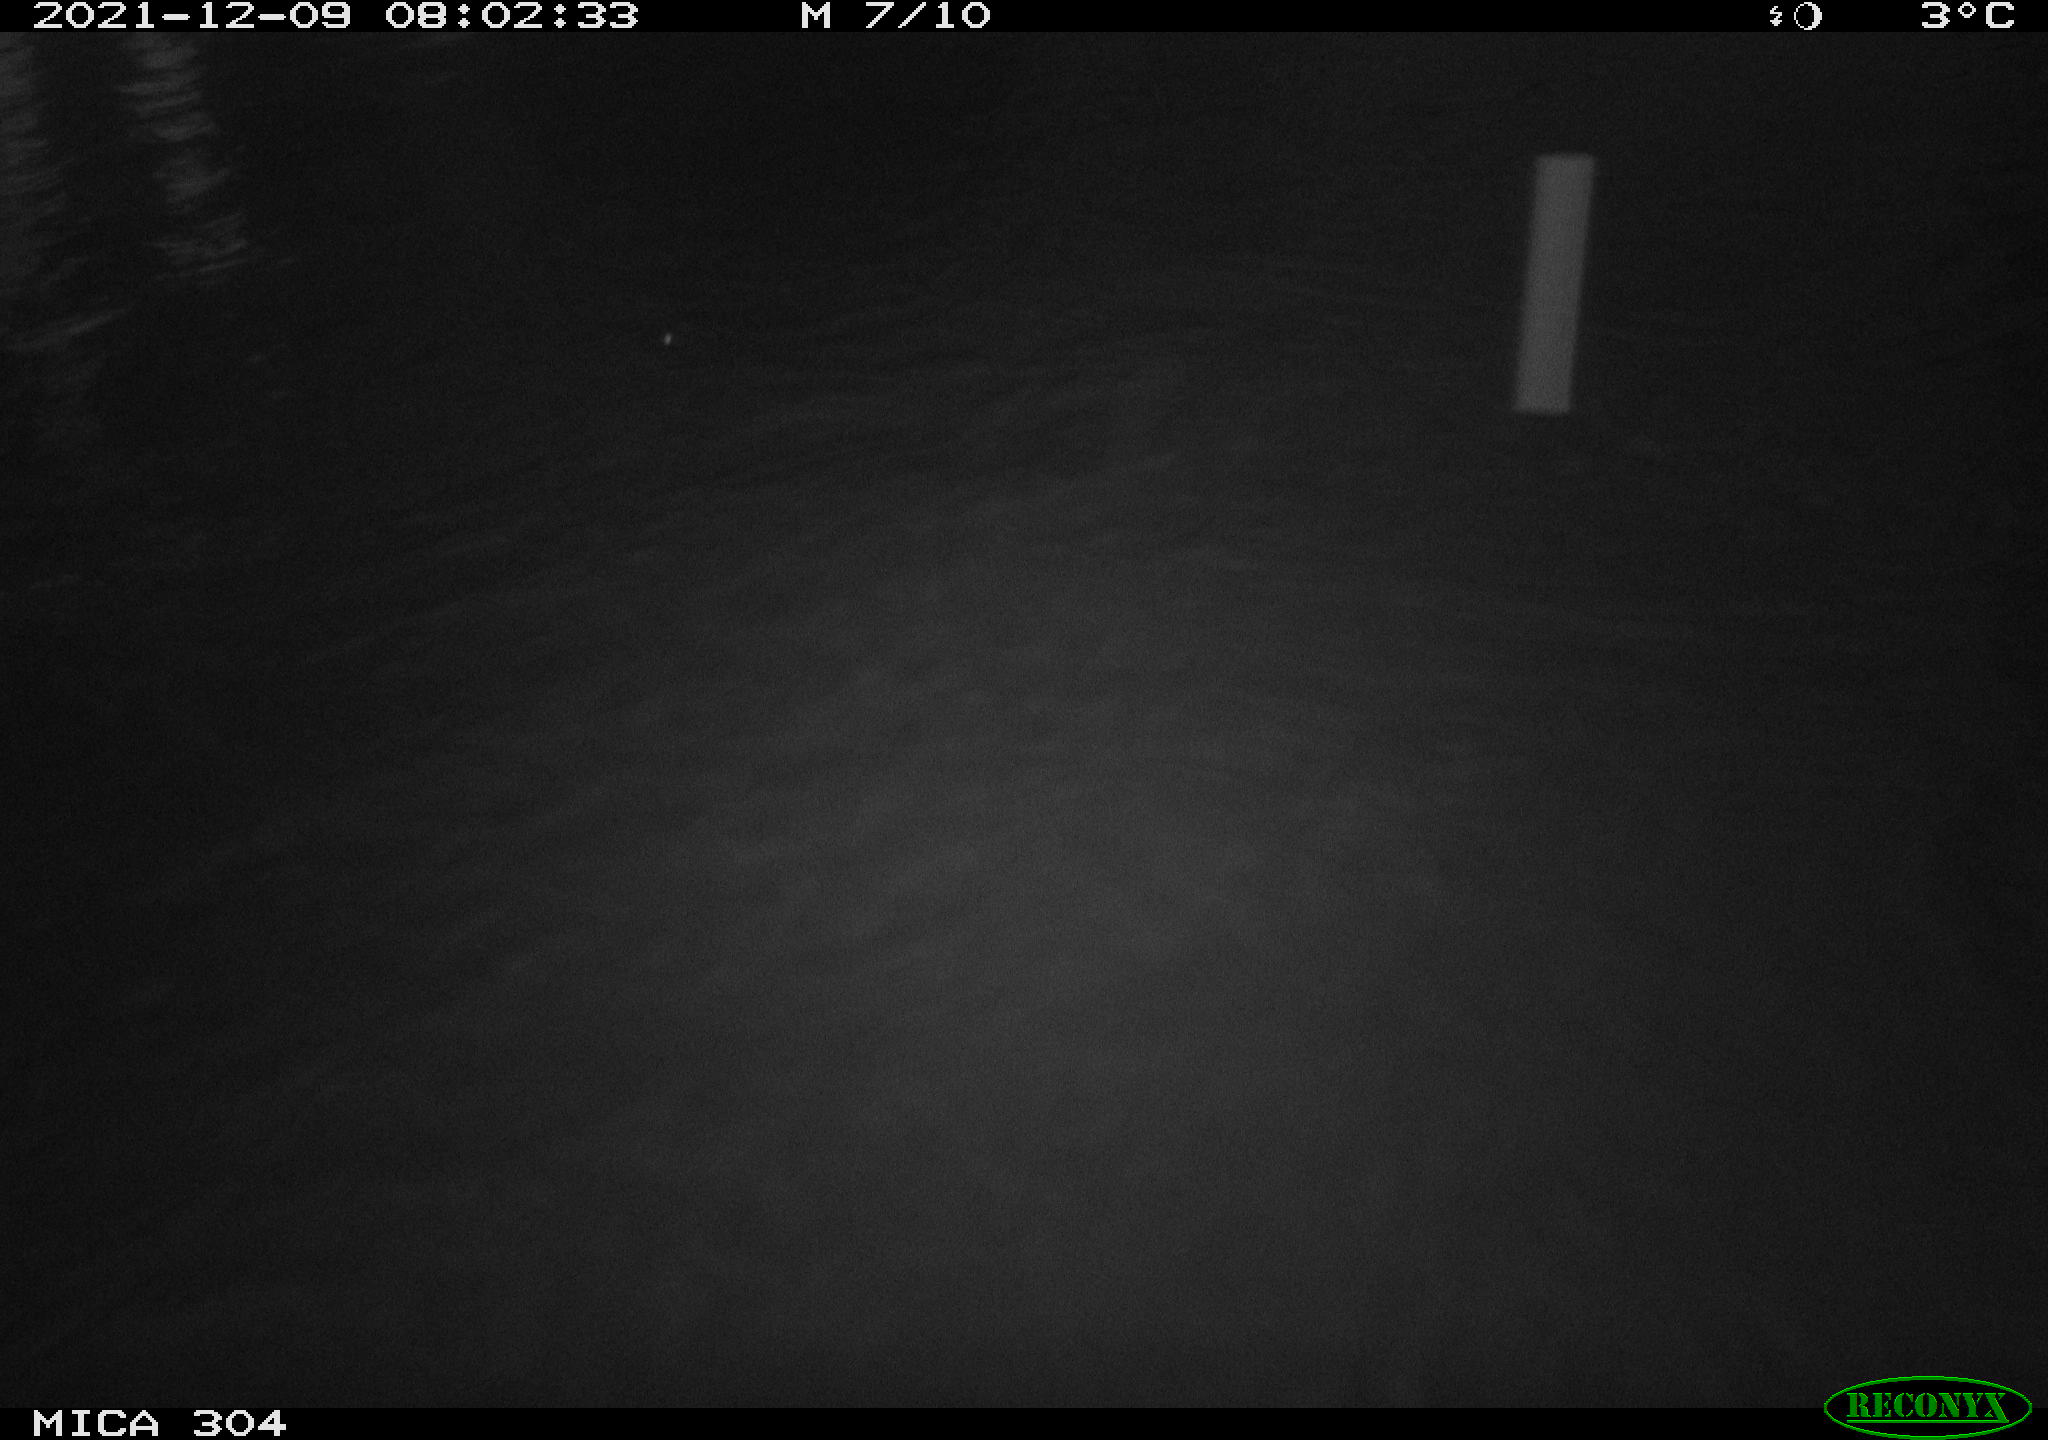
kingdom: Animalia
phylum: Chordata
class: Aves
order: Gruiformes
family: Rallidae
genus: Fulica
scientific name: Fulica atra
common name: Eurasian coot
